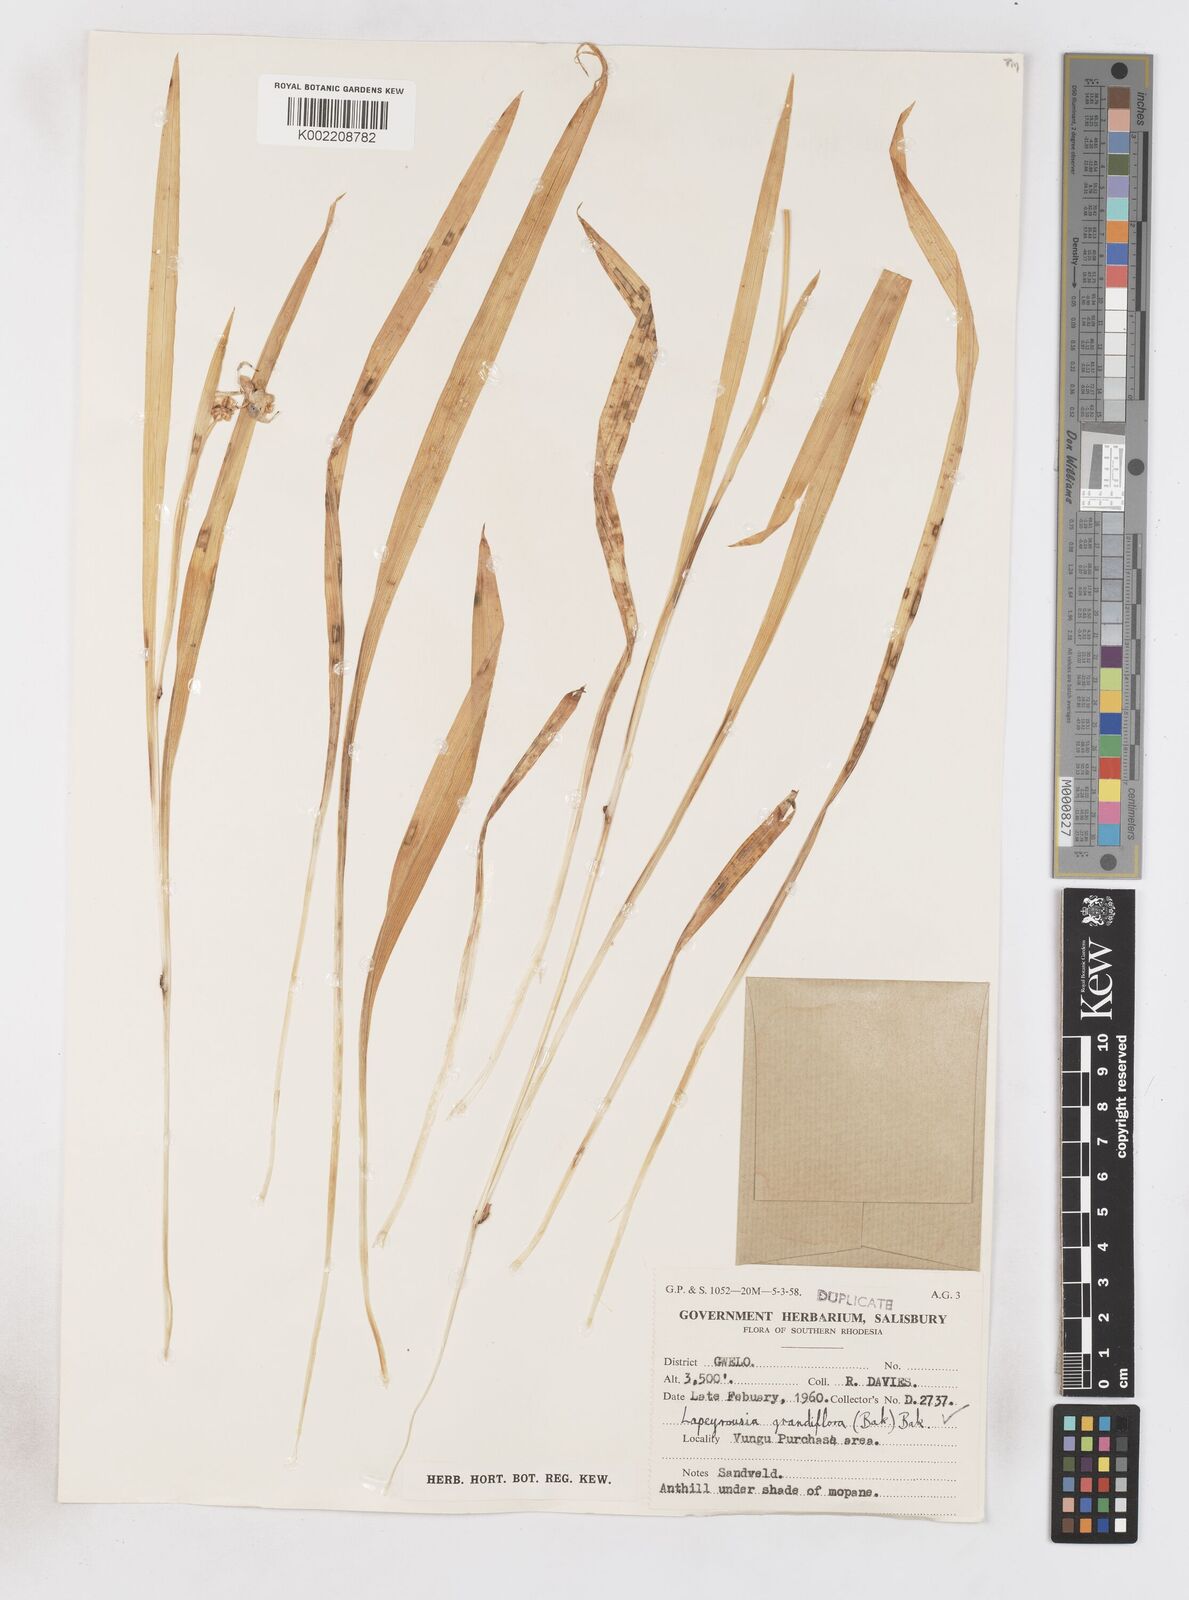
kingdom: Plantae
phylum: Tracheophyta
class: Liliopsida
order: Asparagales
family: Iridaceae
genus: Freesia
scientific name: Freesia grandiflora
